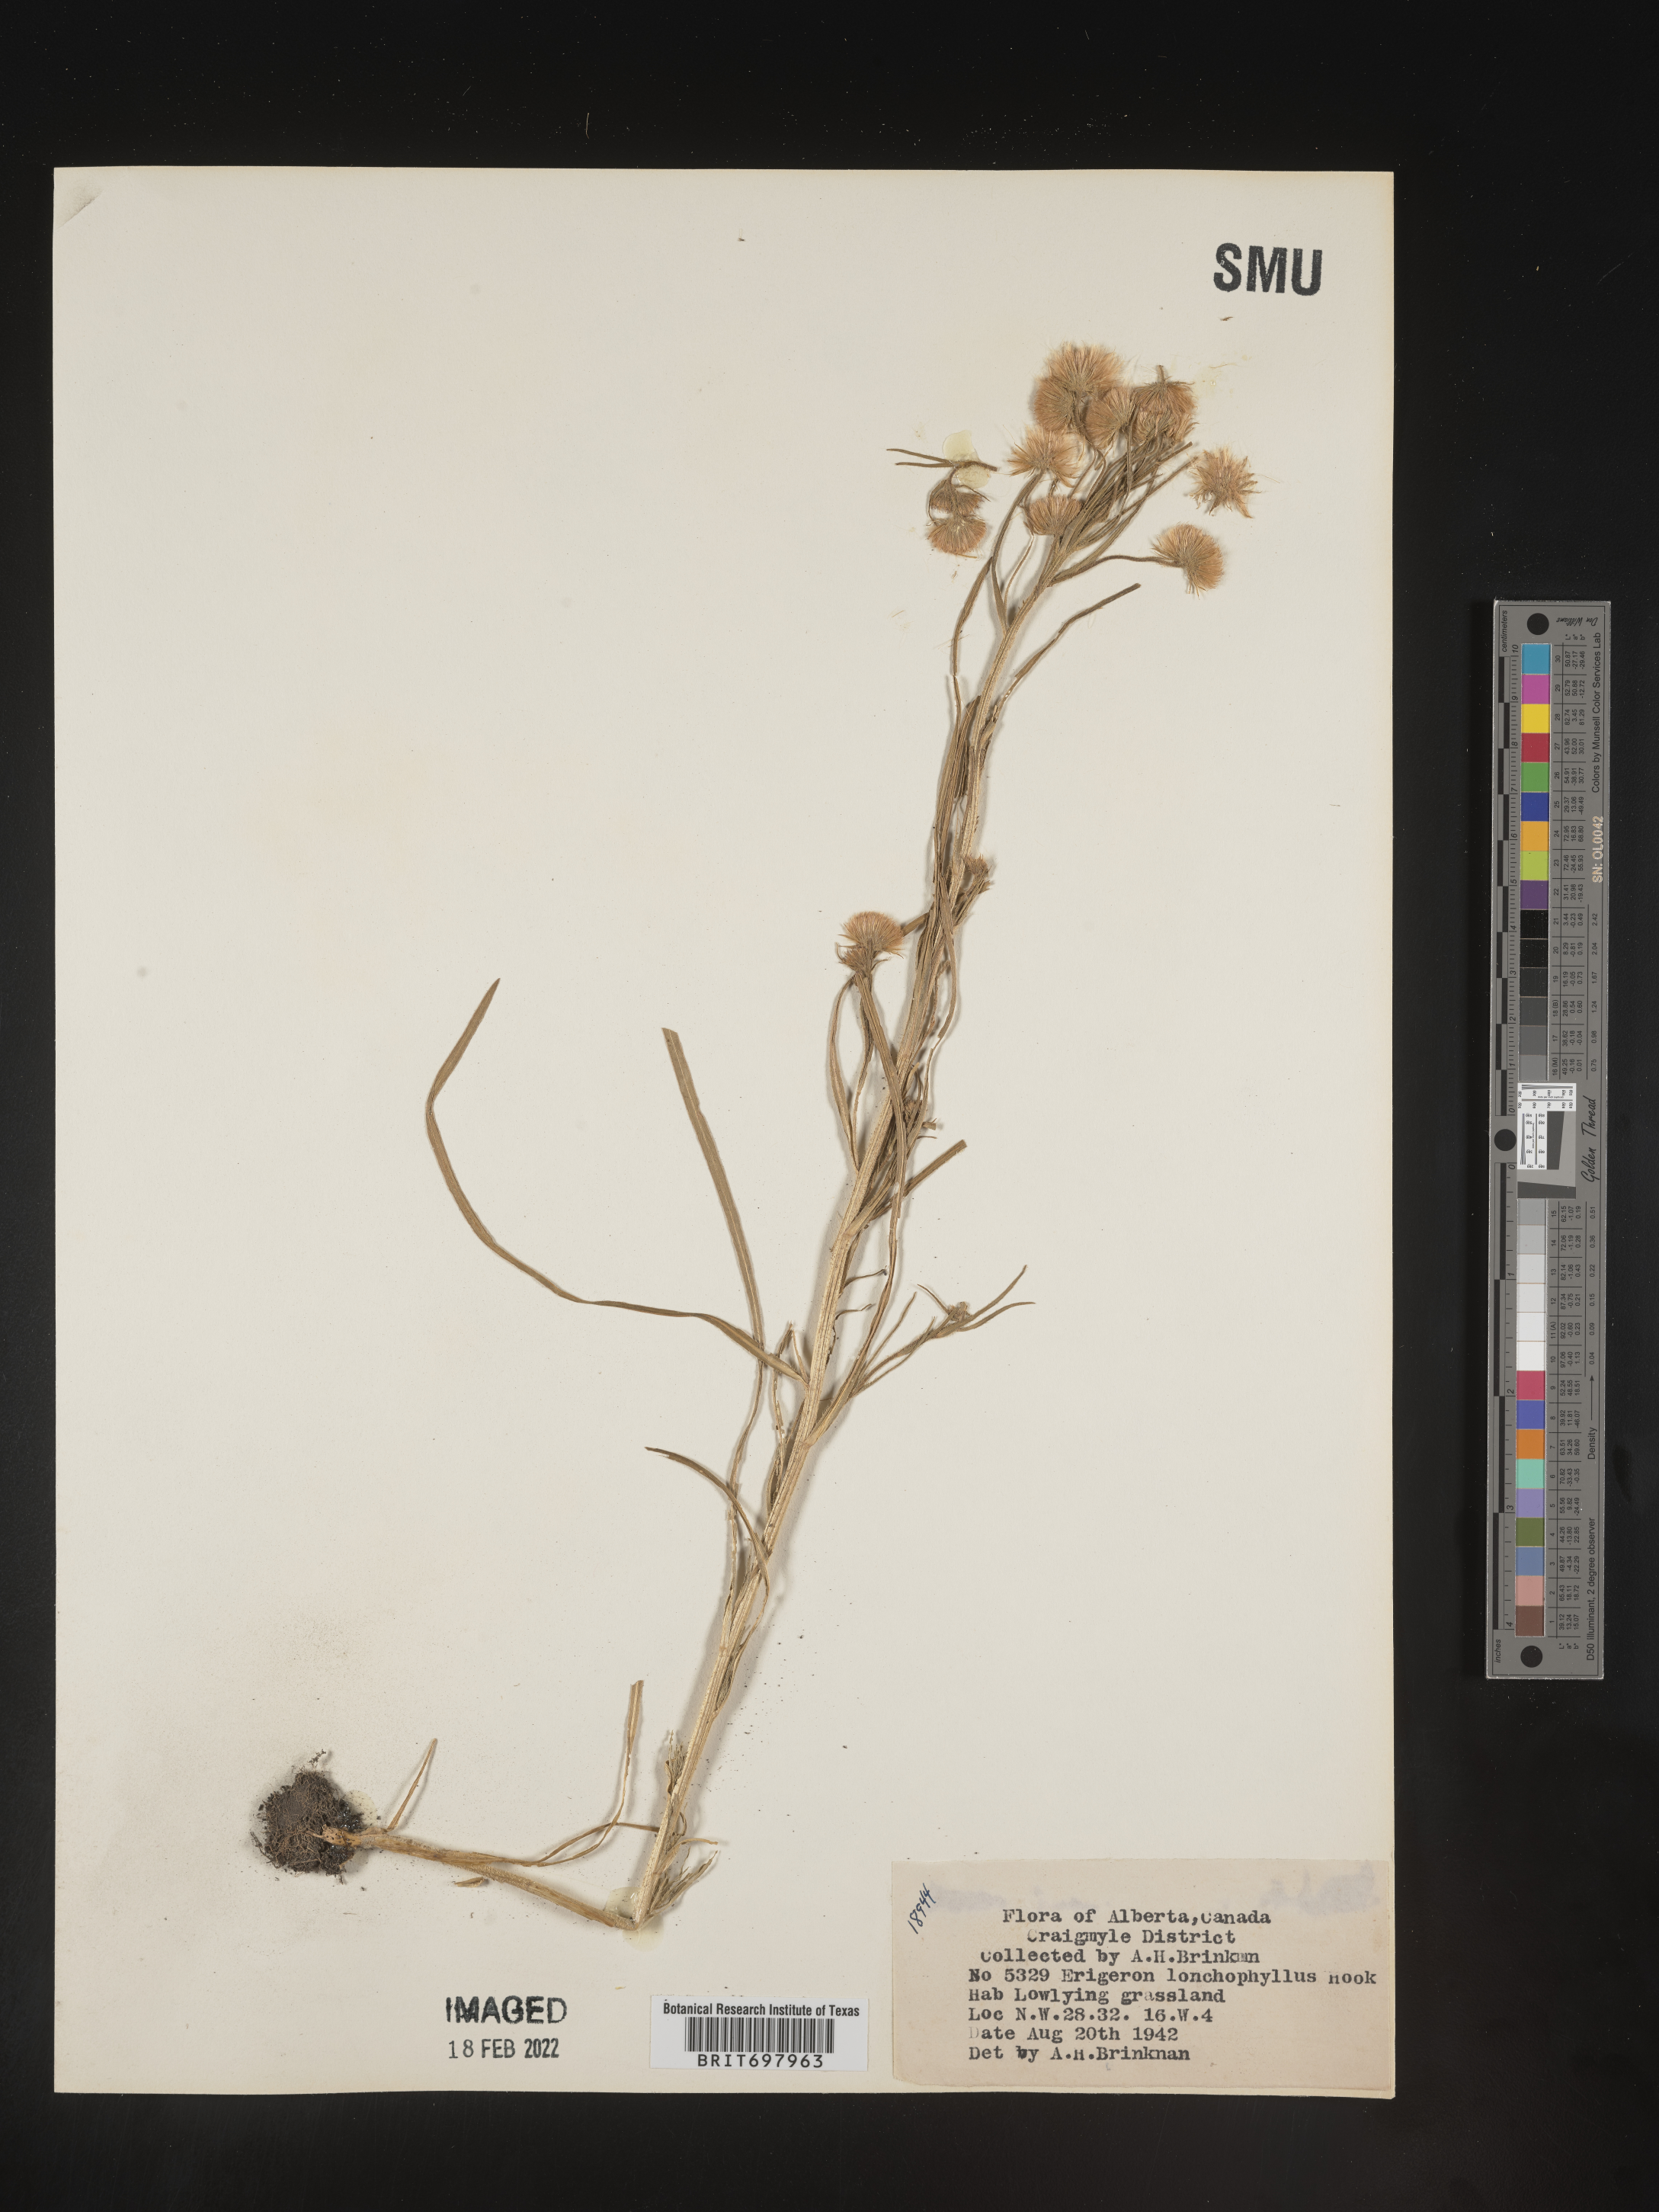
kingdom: Plantae
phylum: Tracheophyta
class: Magnoliopsida
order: Asterales
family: Asteraceae
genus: Erigeron
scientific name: Erigeron lonchophyllus
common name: Short-ray fleabane
